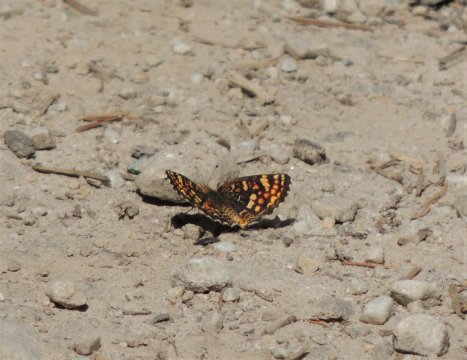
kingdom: Animalia
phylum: Arthropoda
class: Insecta
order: Lepidoptera
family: Nymphalidae
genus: Phyciodes
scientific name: Phyciodes tharos
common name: Field Crescent
